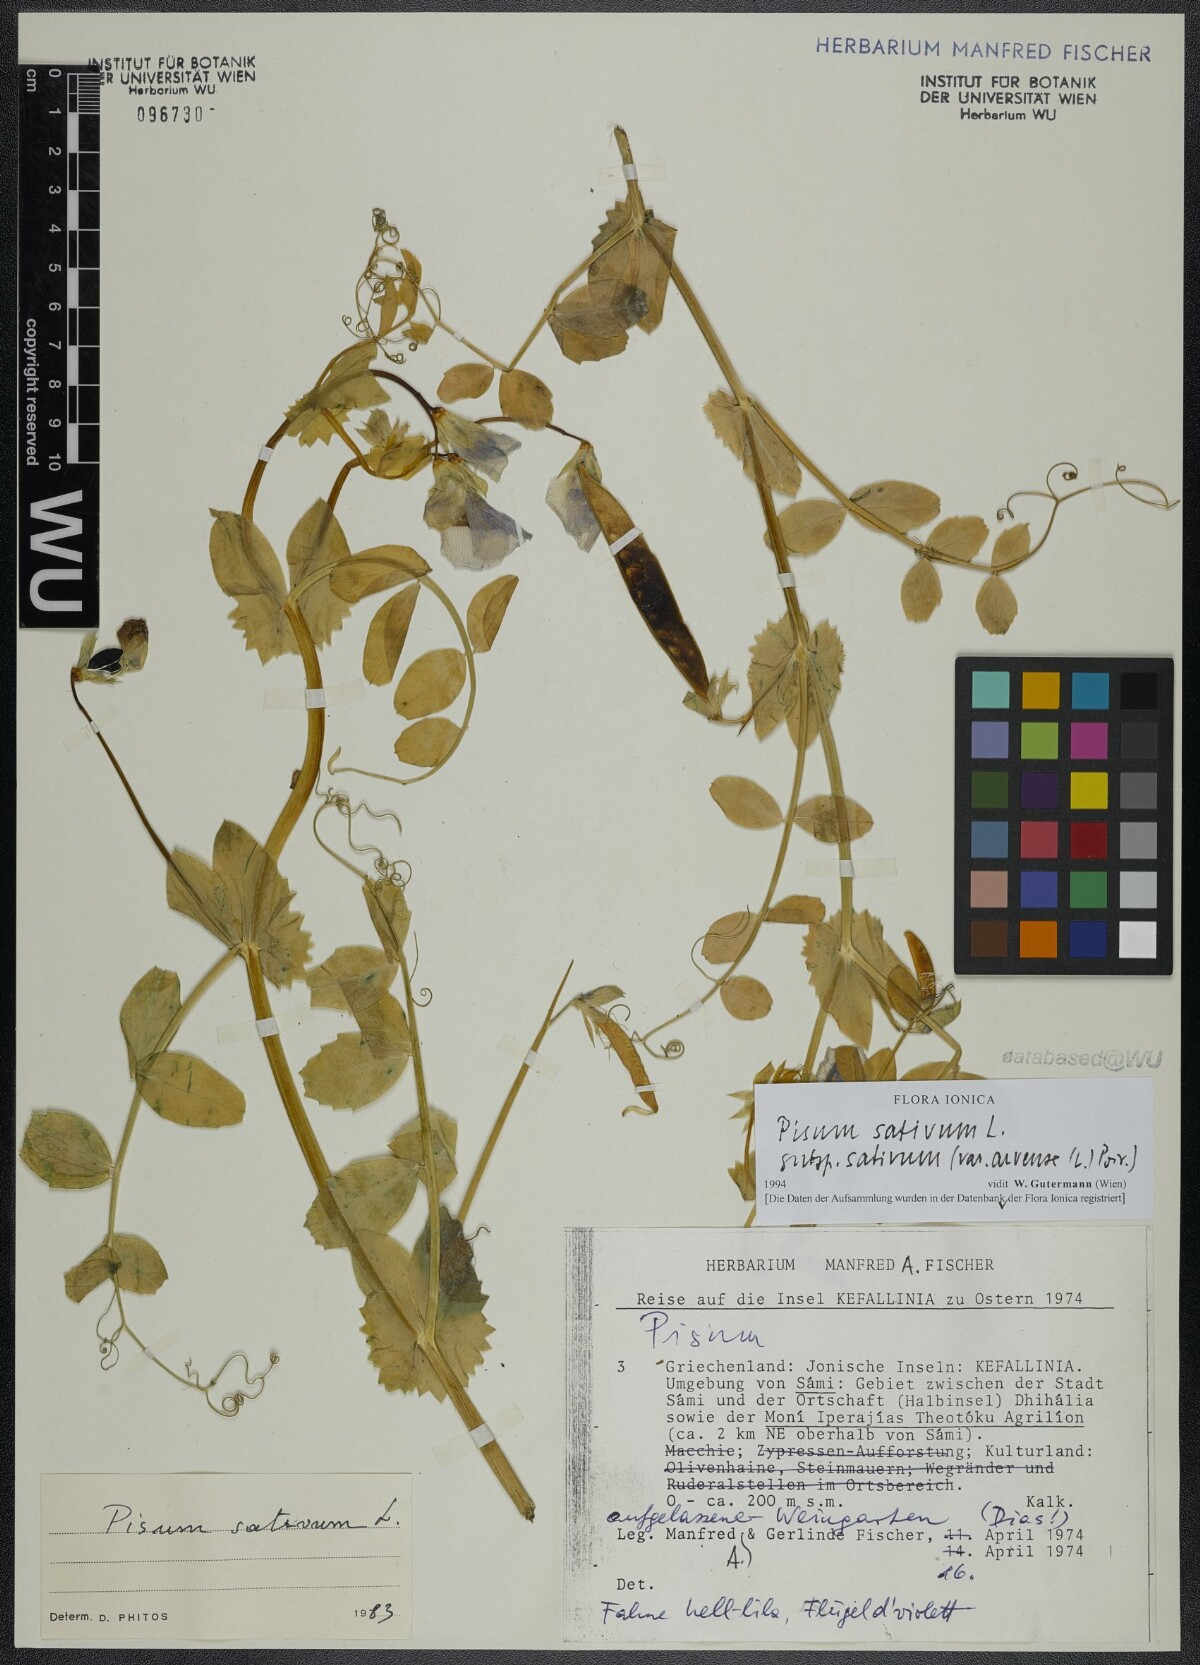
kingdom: Plantae
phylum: Tracheophyta
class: Magnoliopsida
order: Fabales
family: Fabaceae
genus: Lathyrus
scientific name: Lathyrus oleraceus
